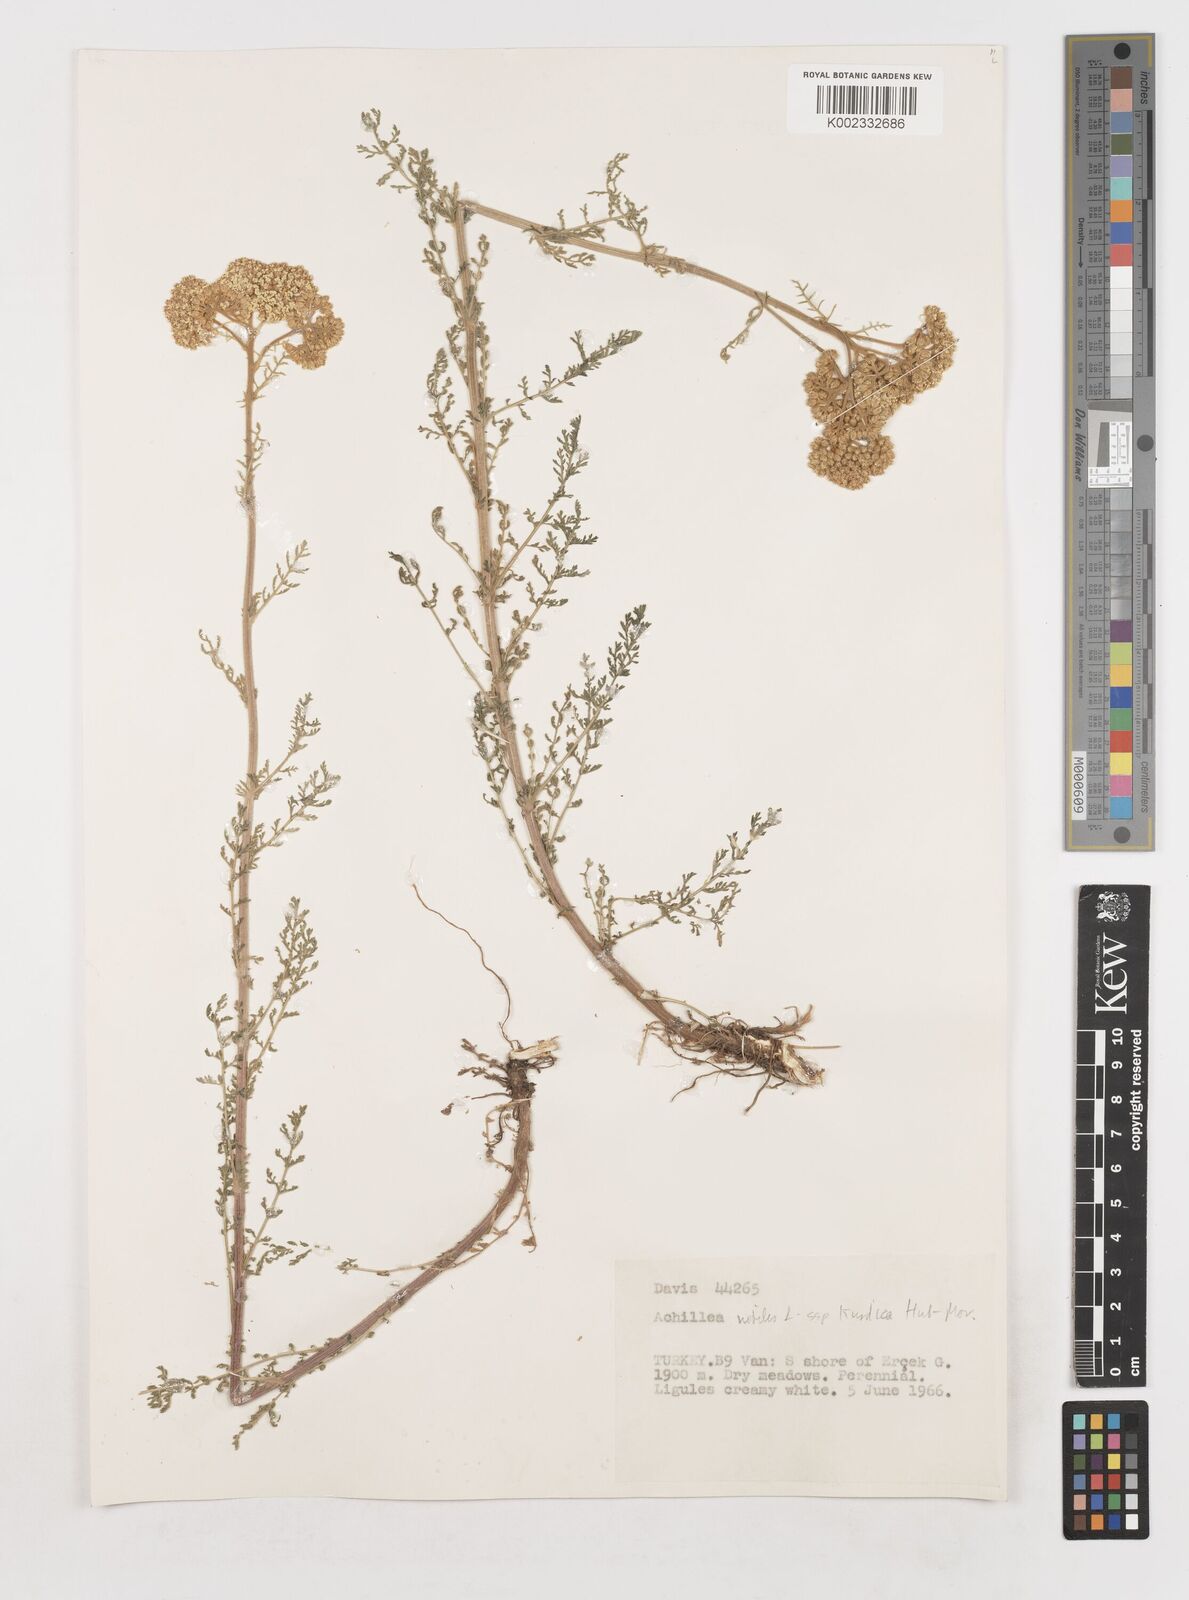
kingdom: Plantae
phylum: Tracheophyta
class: Magnoliopsida
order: Asterales
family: Asteraceae
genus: Achillea
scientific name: Achillea nobilis
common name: Noble yarrow
